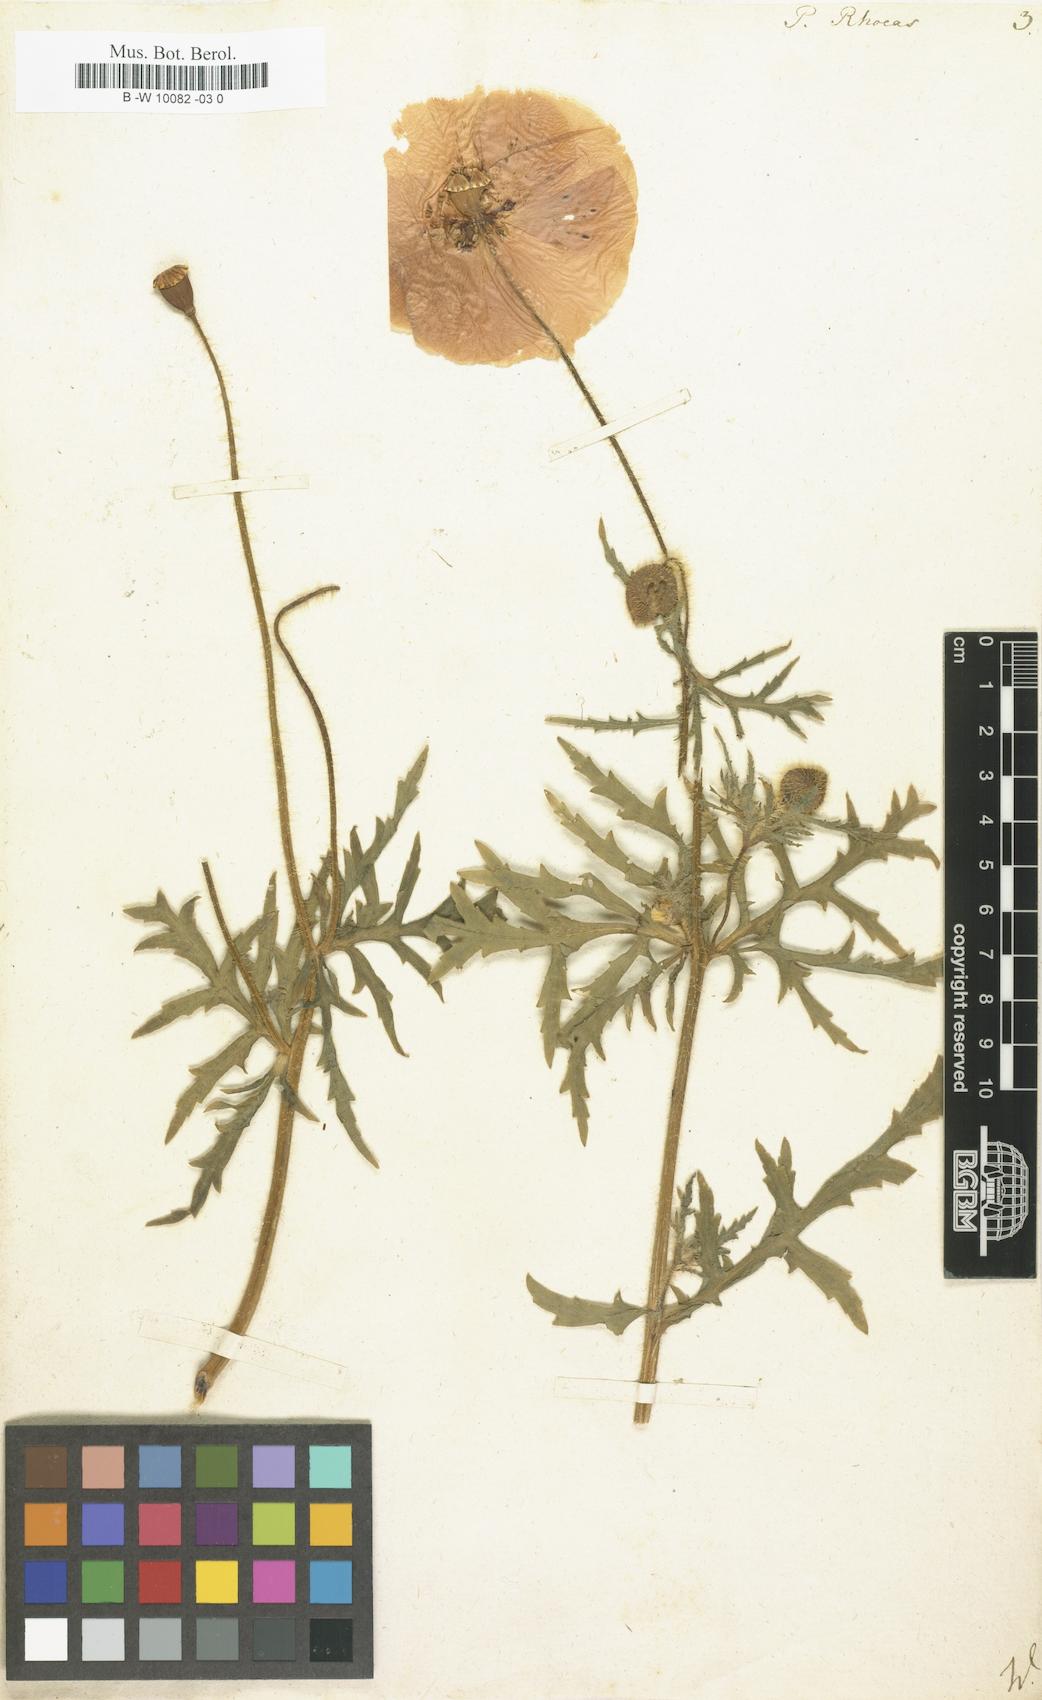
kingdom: Plantae
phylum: Tracheophyta
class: Magnoliopsida
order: Ranunculales
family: Papaveraceae
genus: Papaver
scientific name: Papaver rhoeas
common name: Corn poppy
